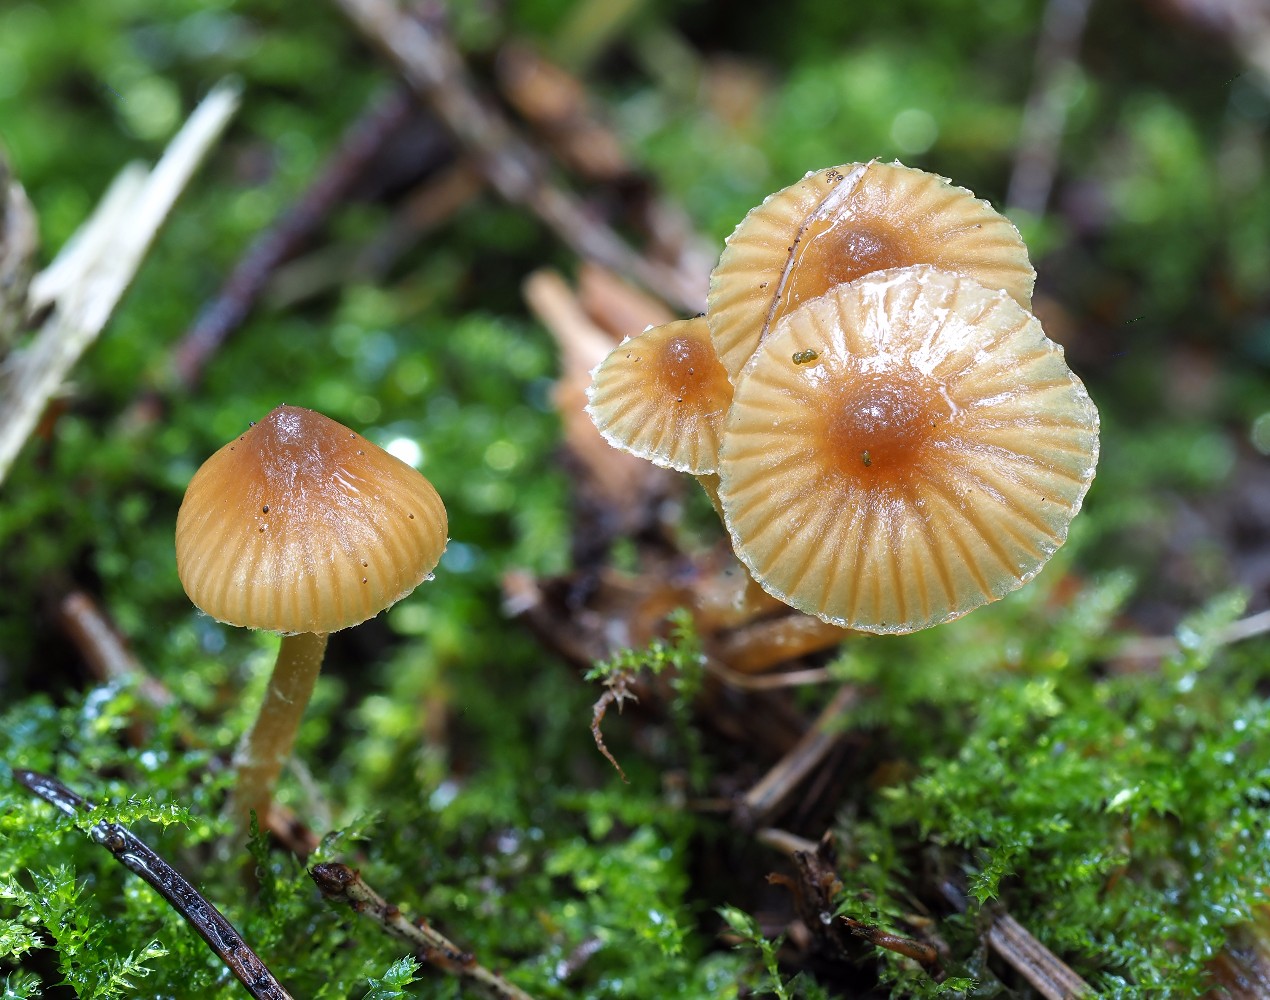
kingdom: Fungi
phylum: Basidiomycota
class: Agaricomycetes
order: Agaricales
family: Hymenogastraceae
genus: Galerina
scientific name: Galerina nana
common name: dværg-hjelmhat
